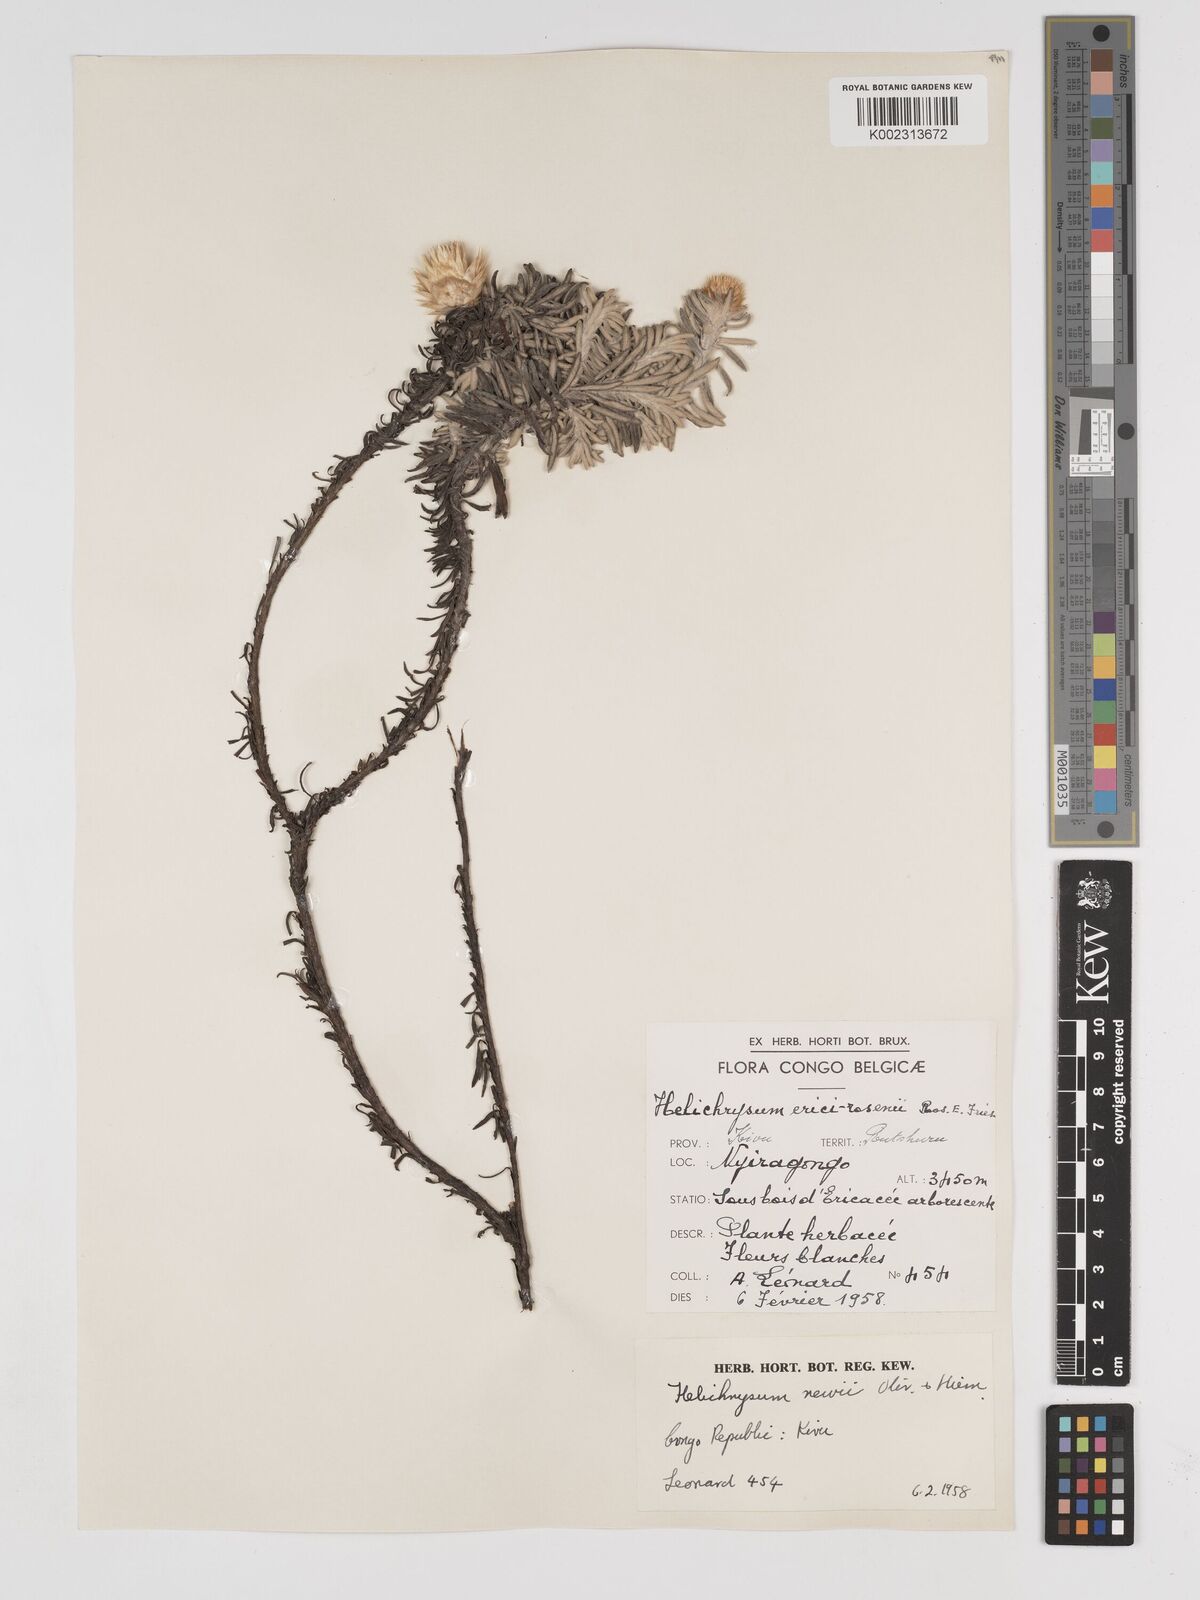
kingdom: Plantae
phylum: Tracheophyta
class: Magnoliopsida
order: Asterales
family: Asteraceae
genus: Helichrysum
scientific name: Helichrysum newii
